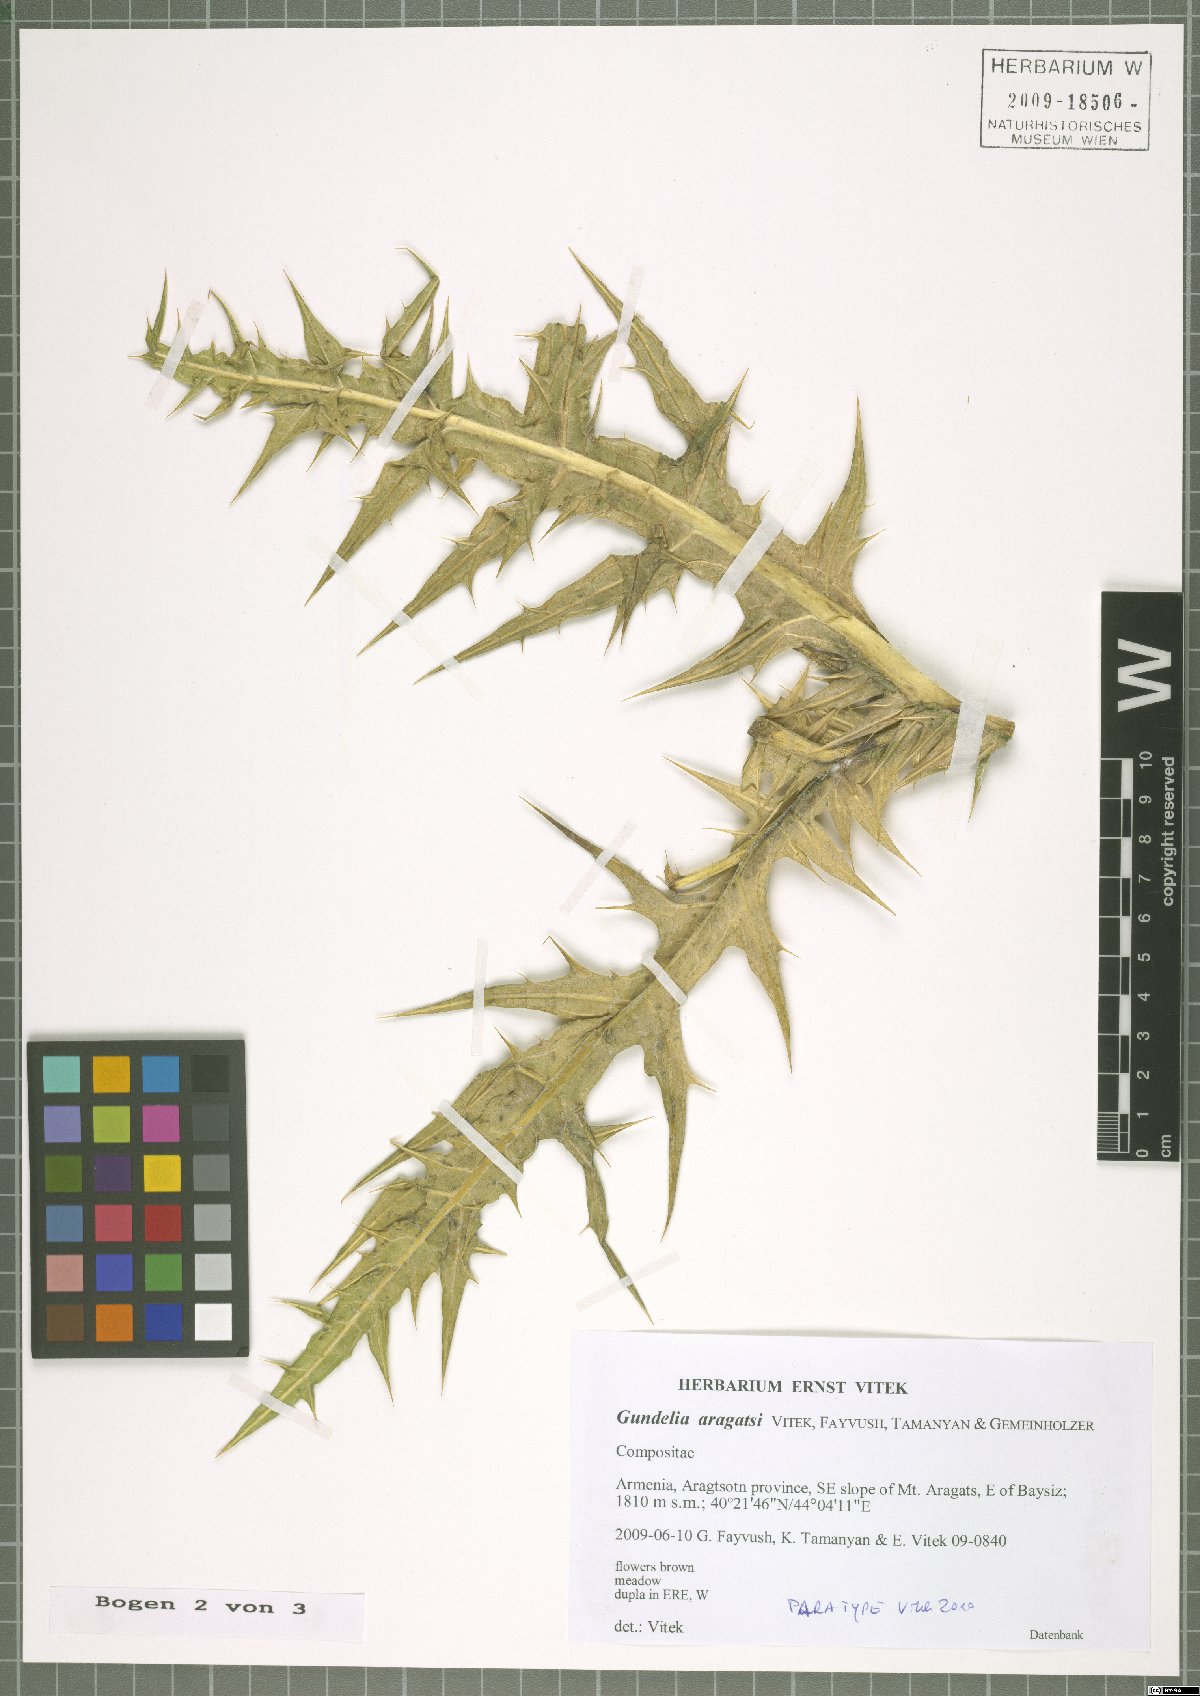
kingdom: Plantae
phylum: Tracheophyta
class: Magnoliopsida
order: Asterales
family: Asteraceae
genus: Gundelia
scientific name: Gundelia aragatsi
